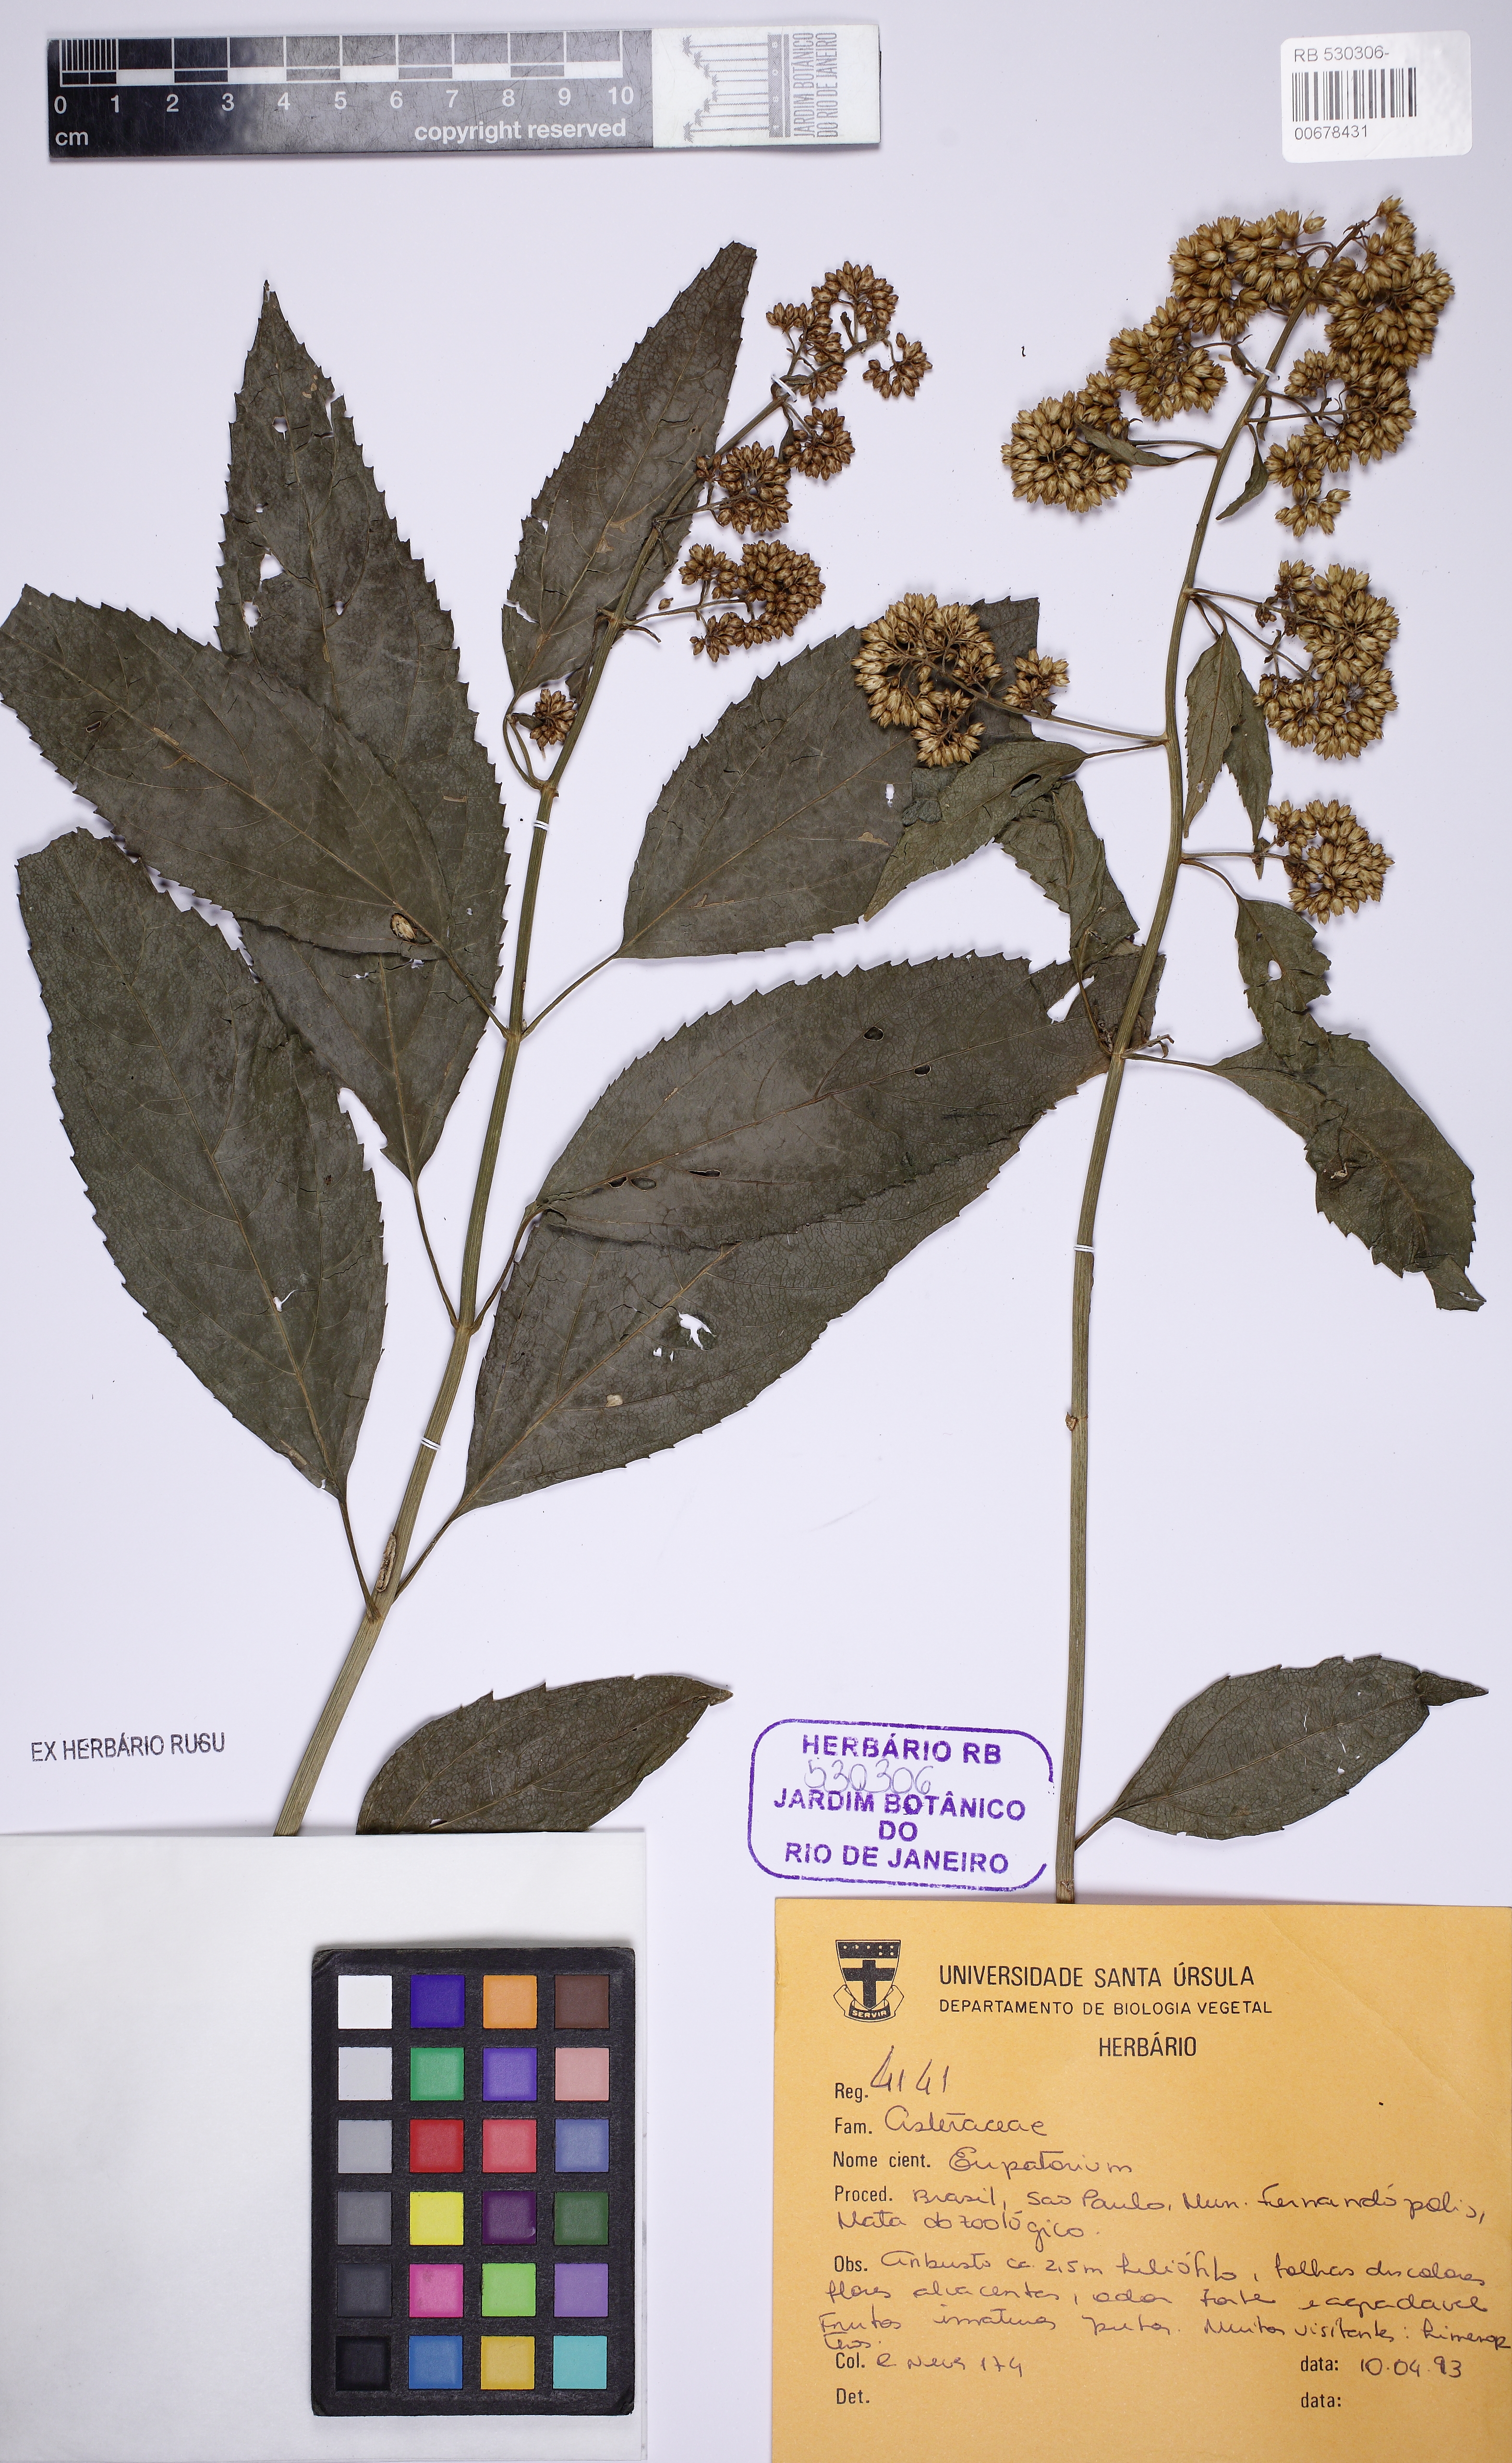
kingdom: Plantae
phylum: Tracheophyta
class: Magnoliopsida
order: Asterales
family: Asteraceae
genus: Eupatorium
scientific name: Eupatorium
